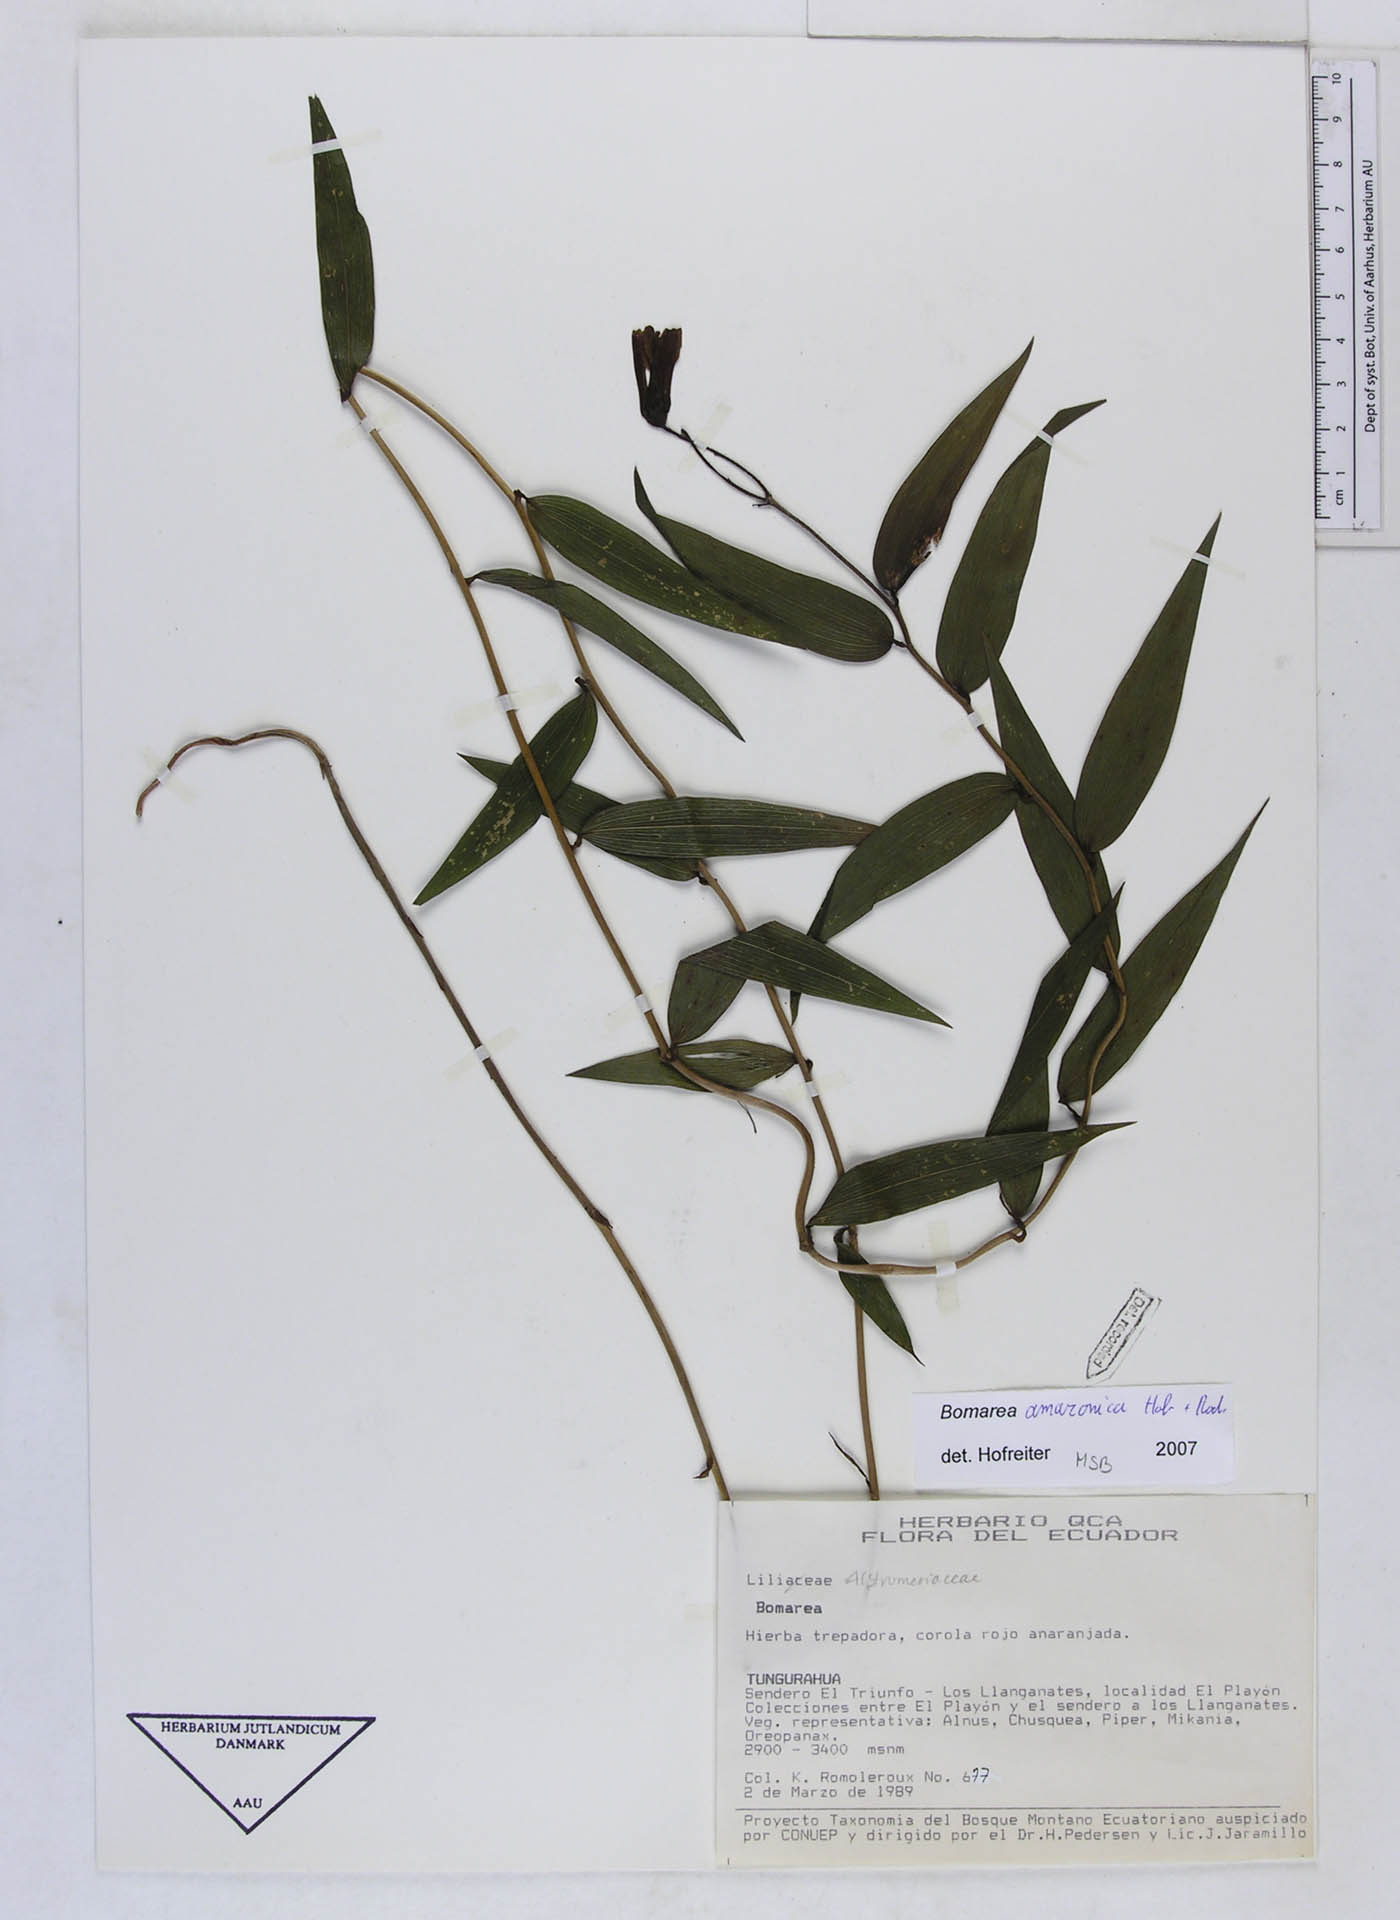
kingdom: Plantae
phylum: Tracheophyta
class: Liliopsida
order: Liliales
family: Alstroemeriaceae
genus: Bomarea
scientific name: Bomarea amazonica
